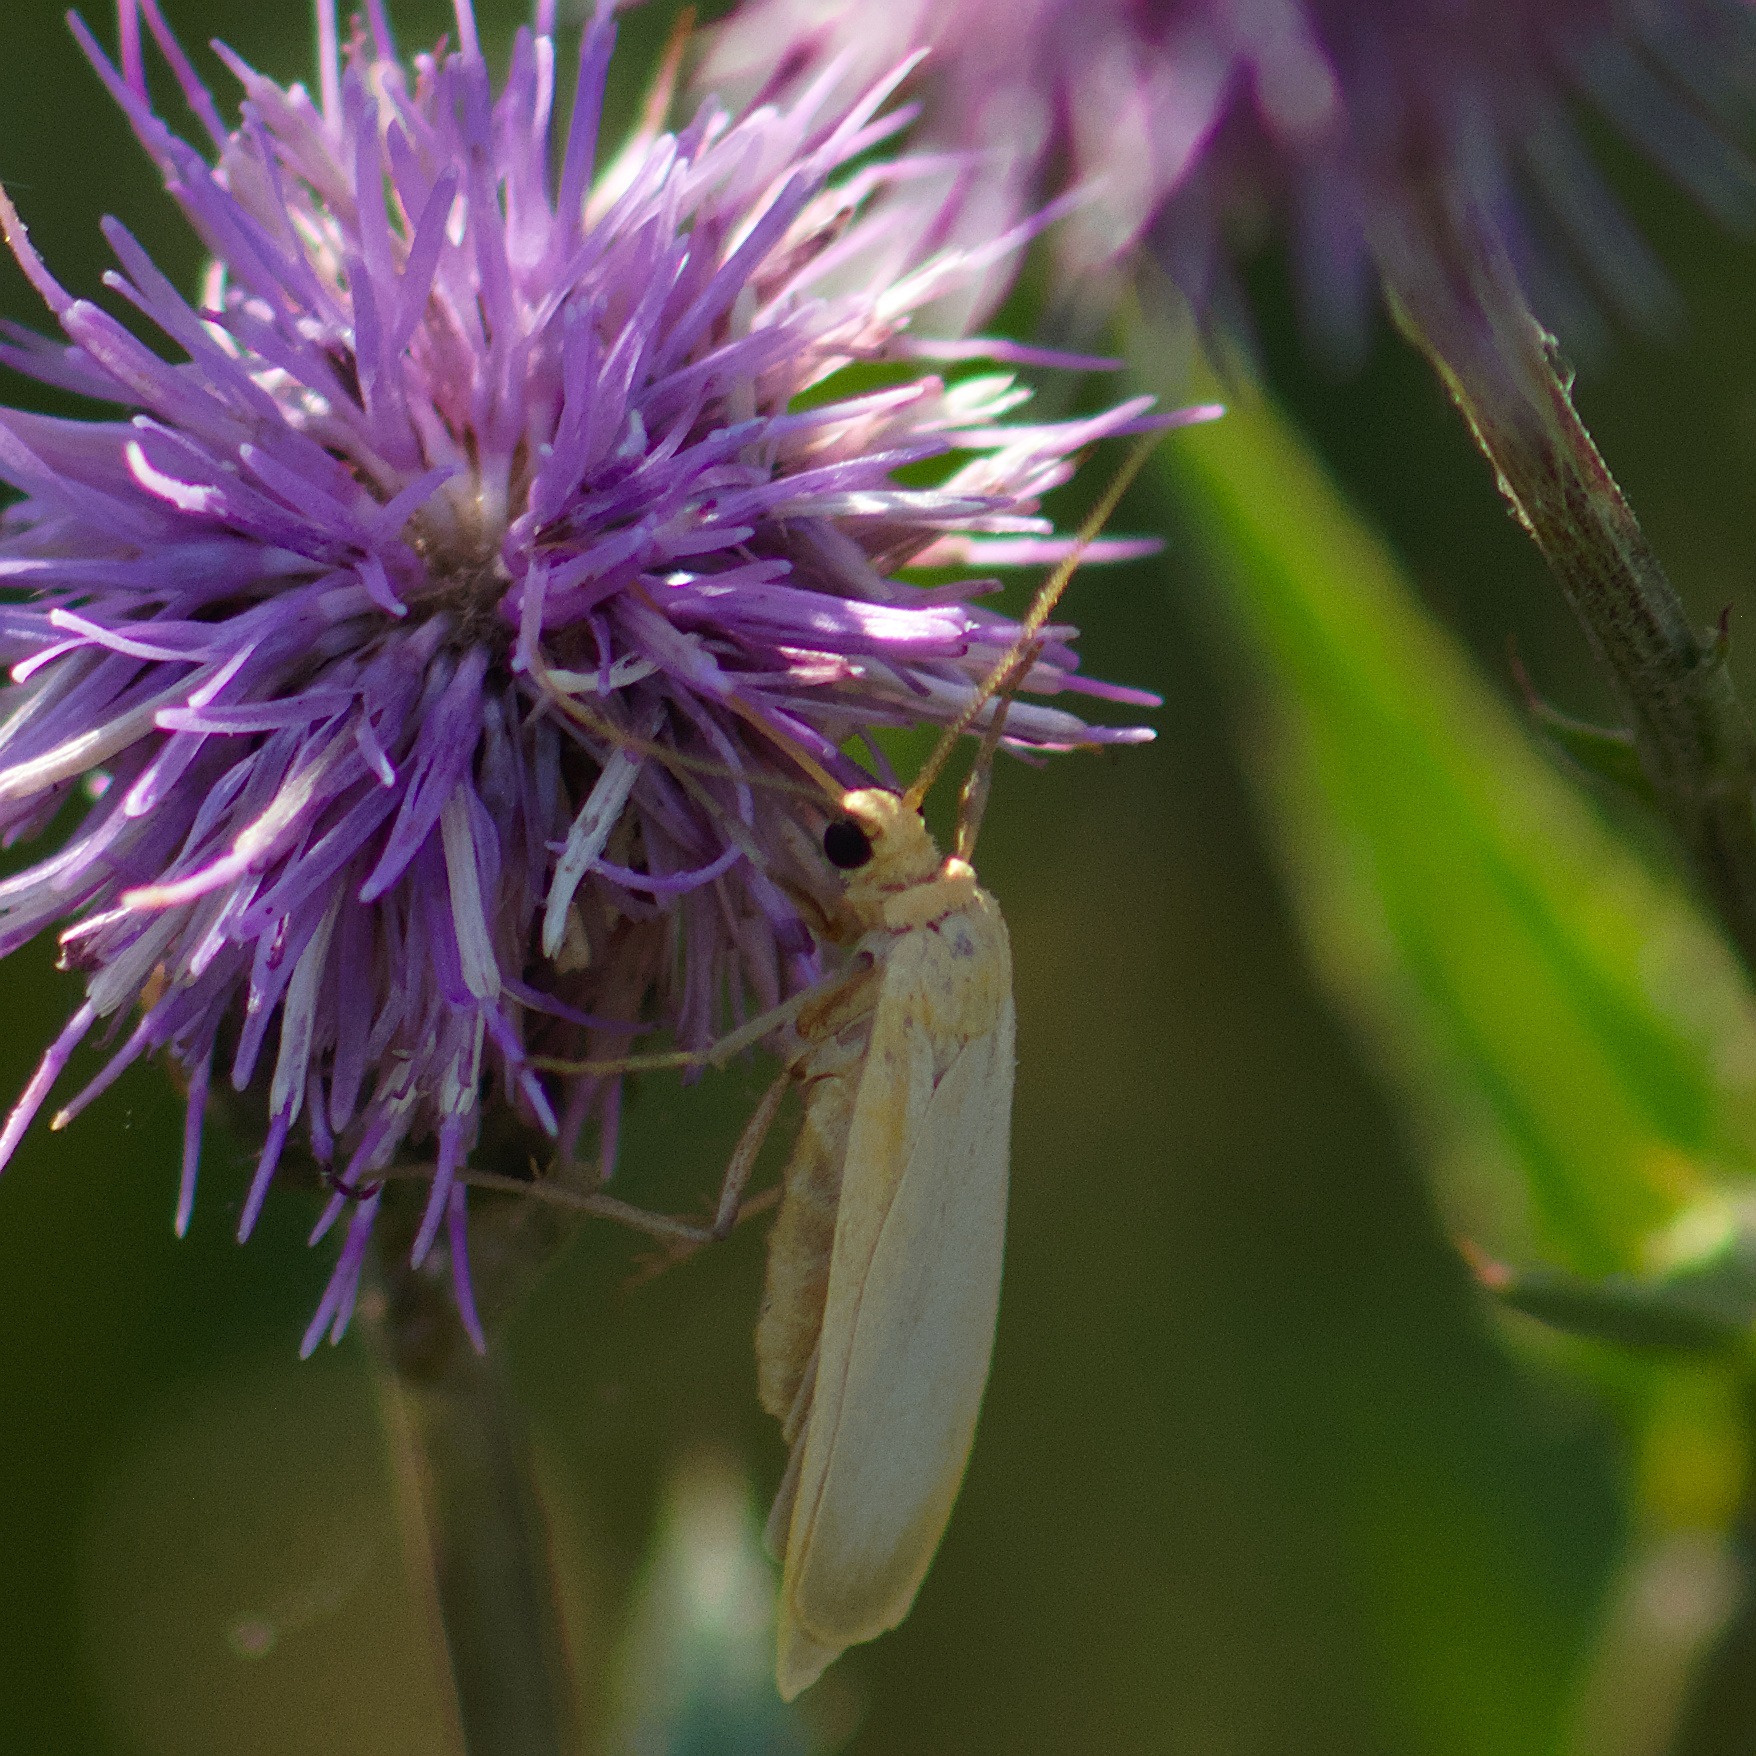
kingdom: Animalia
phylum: Arthropoda
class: Insecta
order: Lepidoptera
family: Erebidae
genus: Katha
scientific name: Katha depressa
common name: Melet lavspinder
